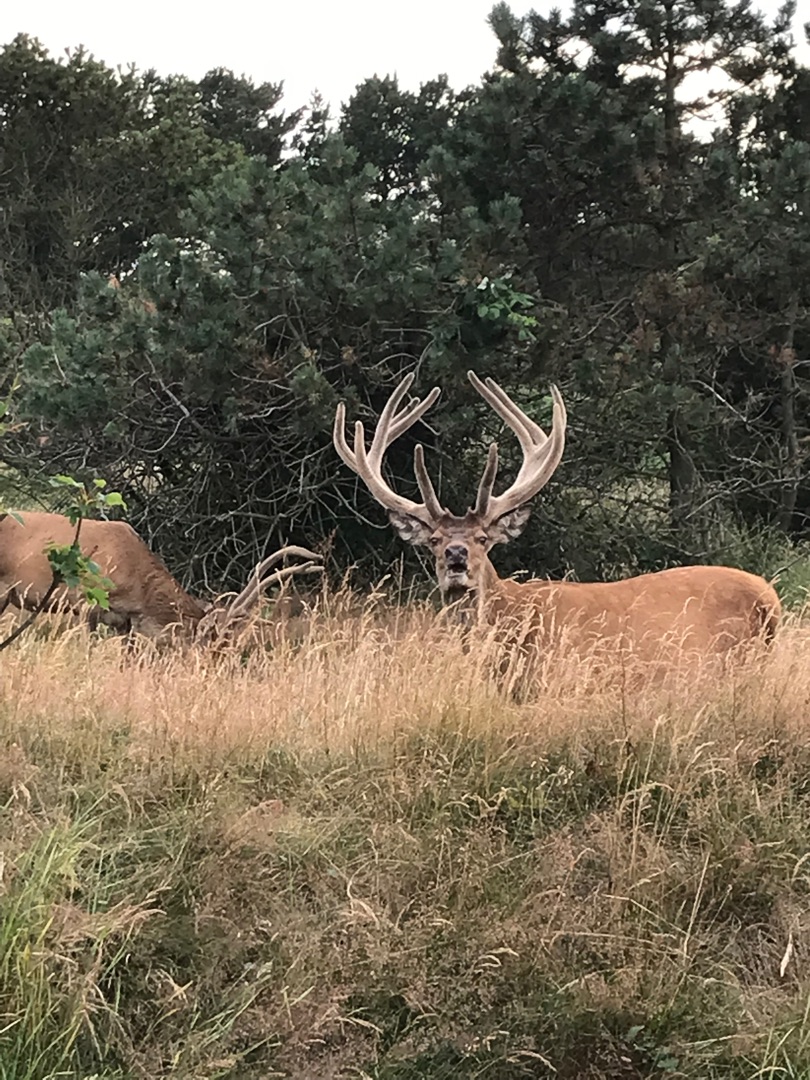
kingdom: Animalia
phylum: Chordata
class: Mammalia
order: Artiodactyla
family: Cervidae
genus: Cervus
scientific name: Cervus elaphus
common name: Krondyr
